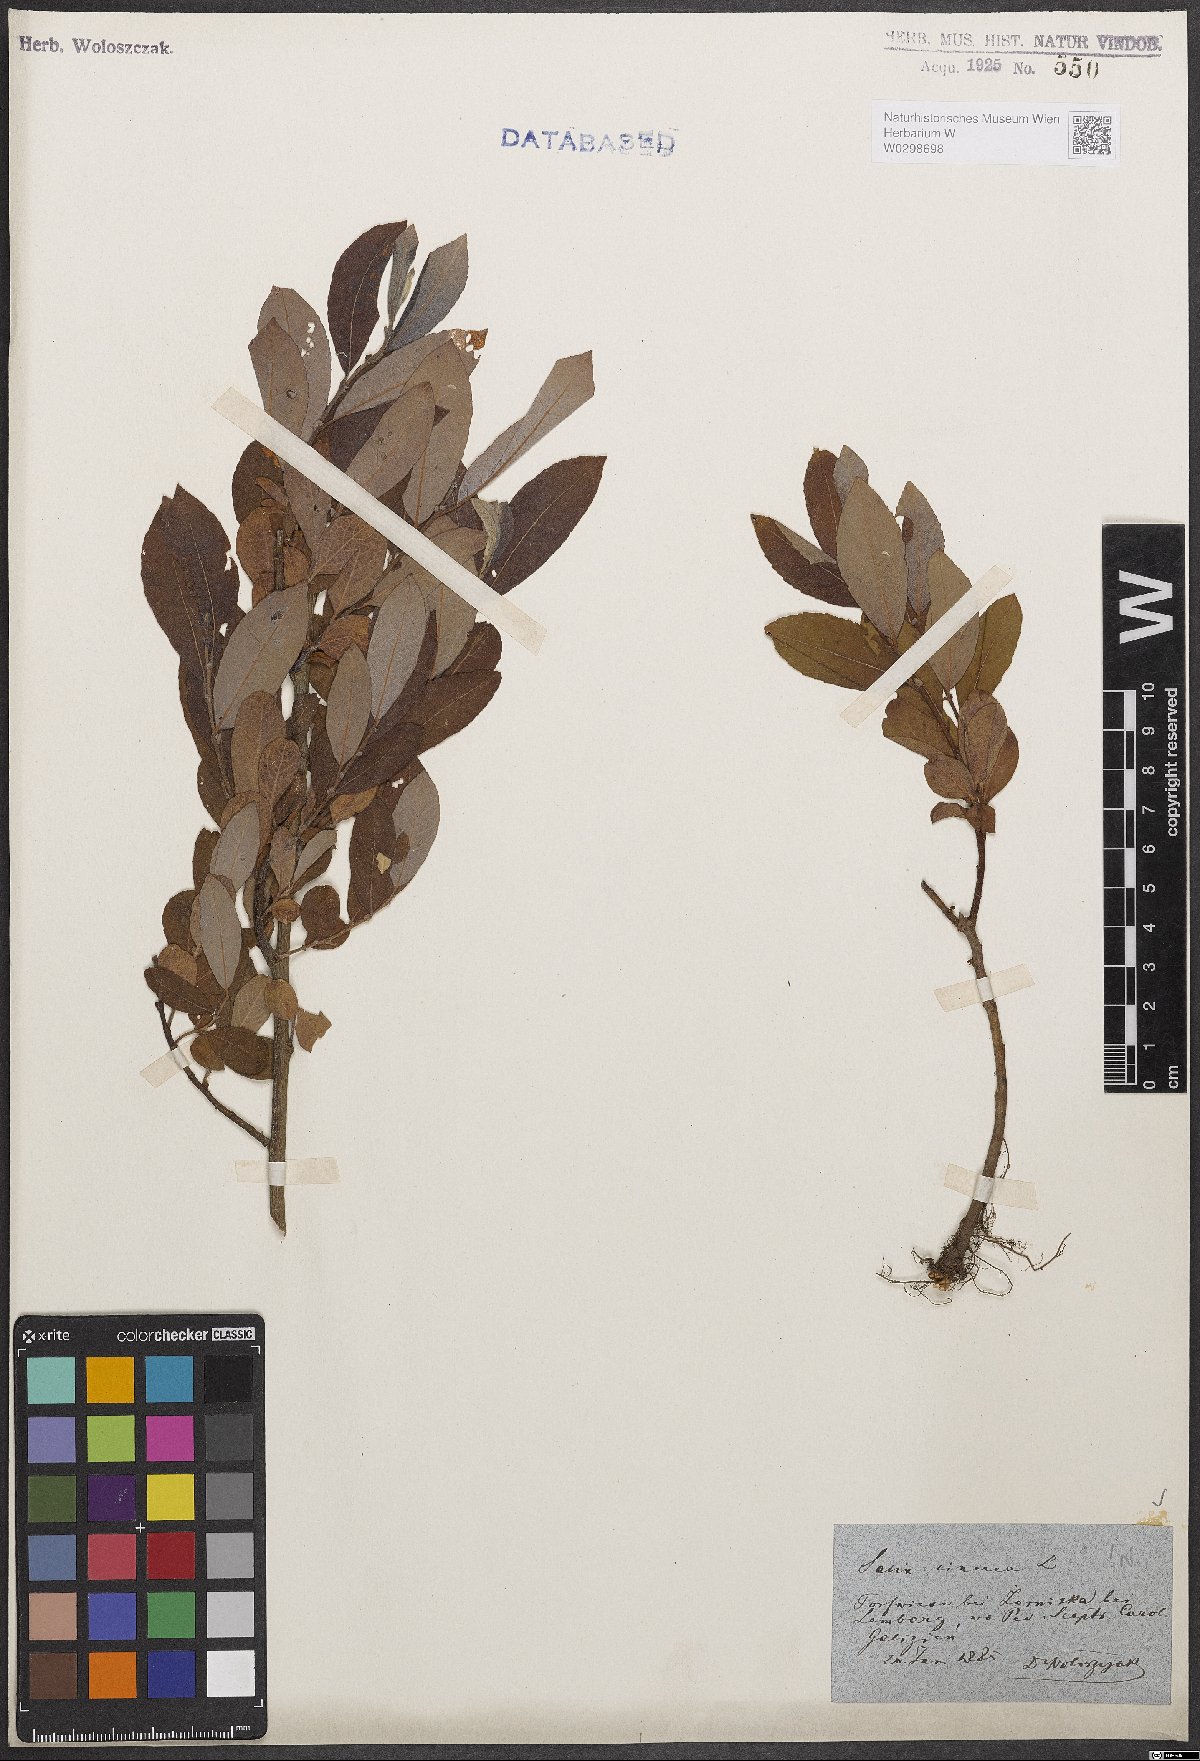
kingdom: Plantae
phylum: Tracheophyta
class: Magnoliopsida
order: Malpighiales
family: Salicaceae
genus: Salix
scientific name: Salix cinerea
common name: Common sallow
